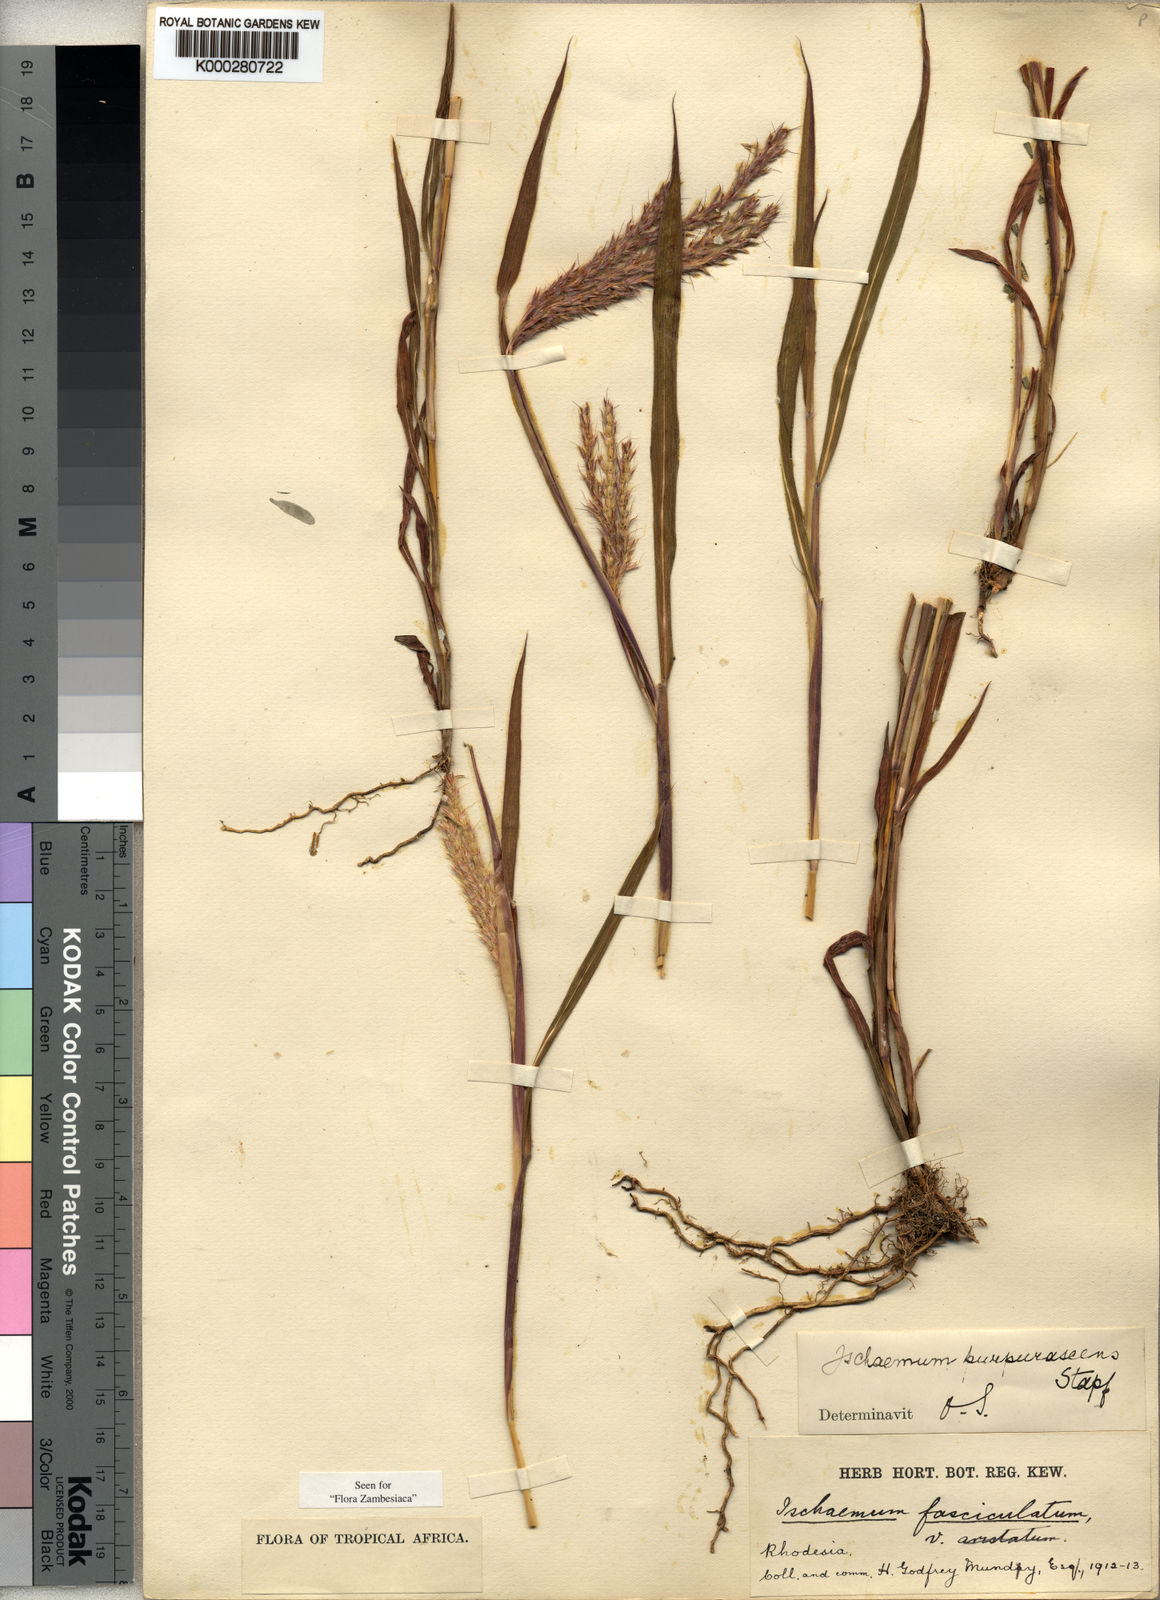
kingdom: Plantae
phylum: Tracheophyta
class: Liliopsida
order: Poales
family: Poaceae
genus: Ischaemum
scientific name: Ischaemum polystachyum
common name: Paddle grass
